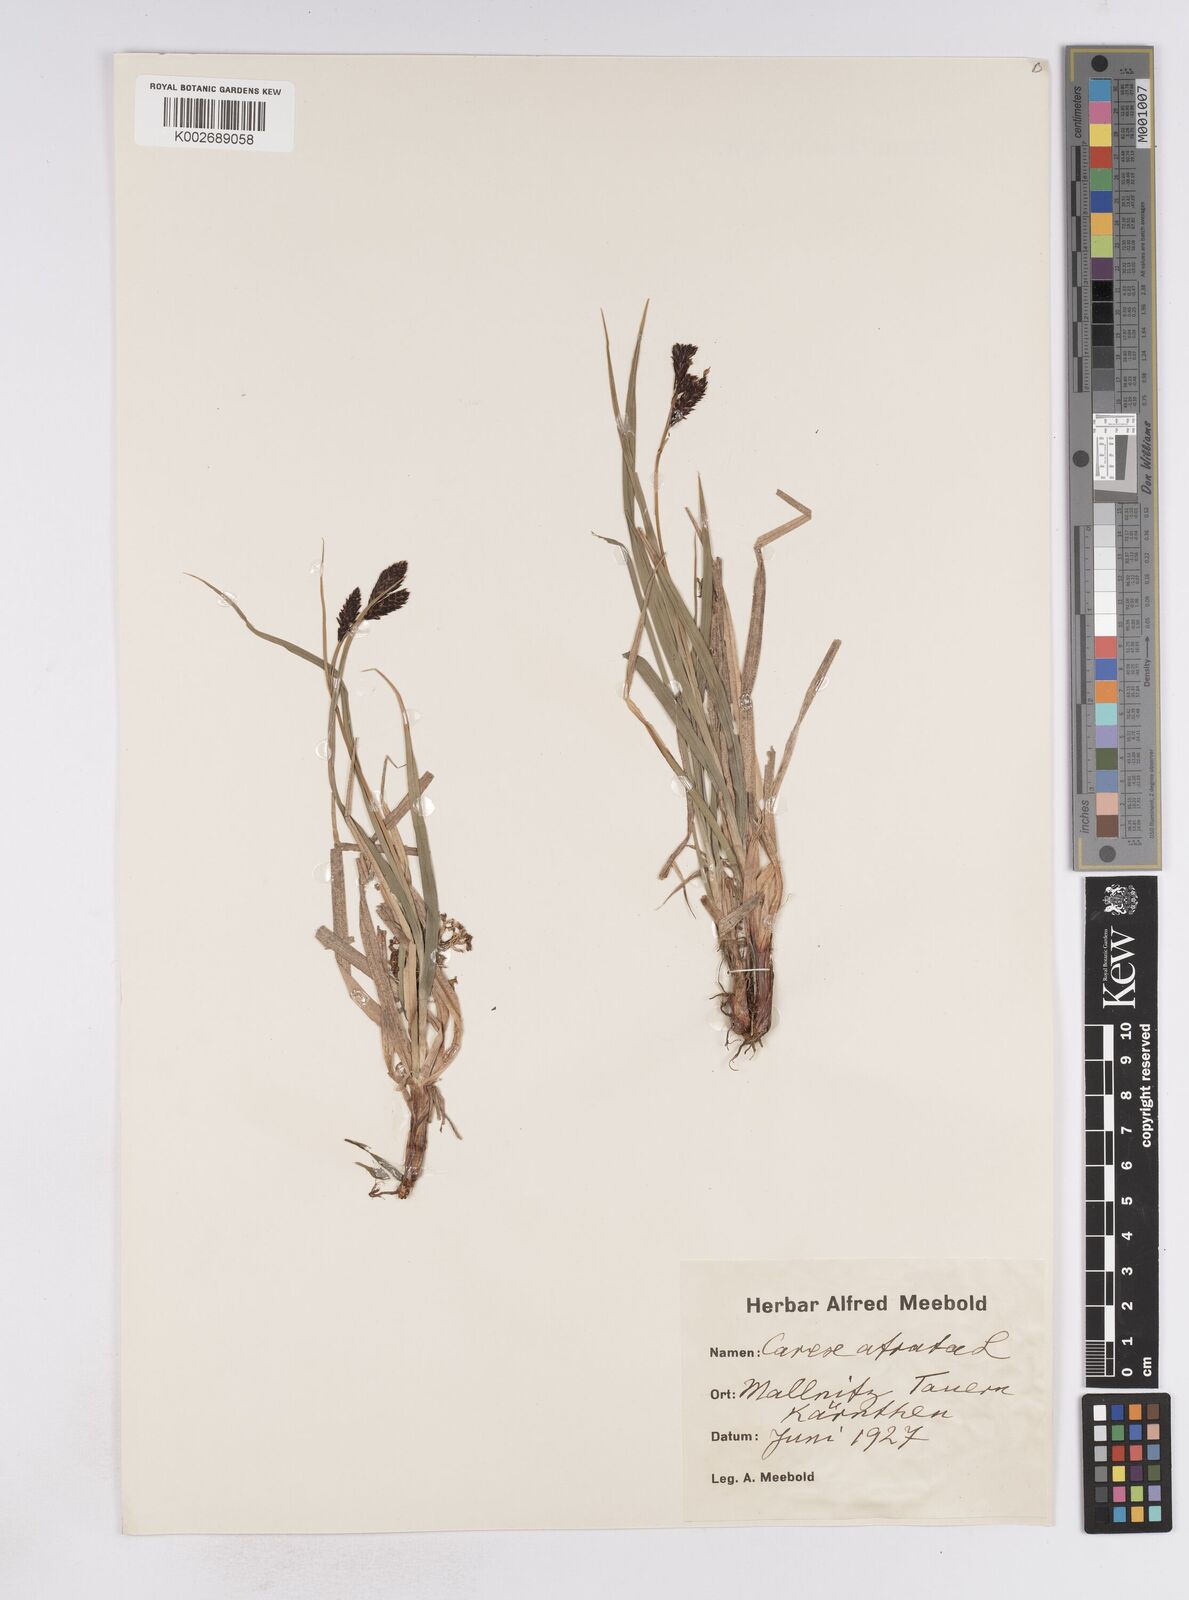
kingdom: Plantae
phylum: Tracheophyta
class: Liliopsida
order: Poales
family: Cyperaceae
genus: Carex
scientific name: Carex atrata
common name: Black alpine sedge
